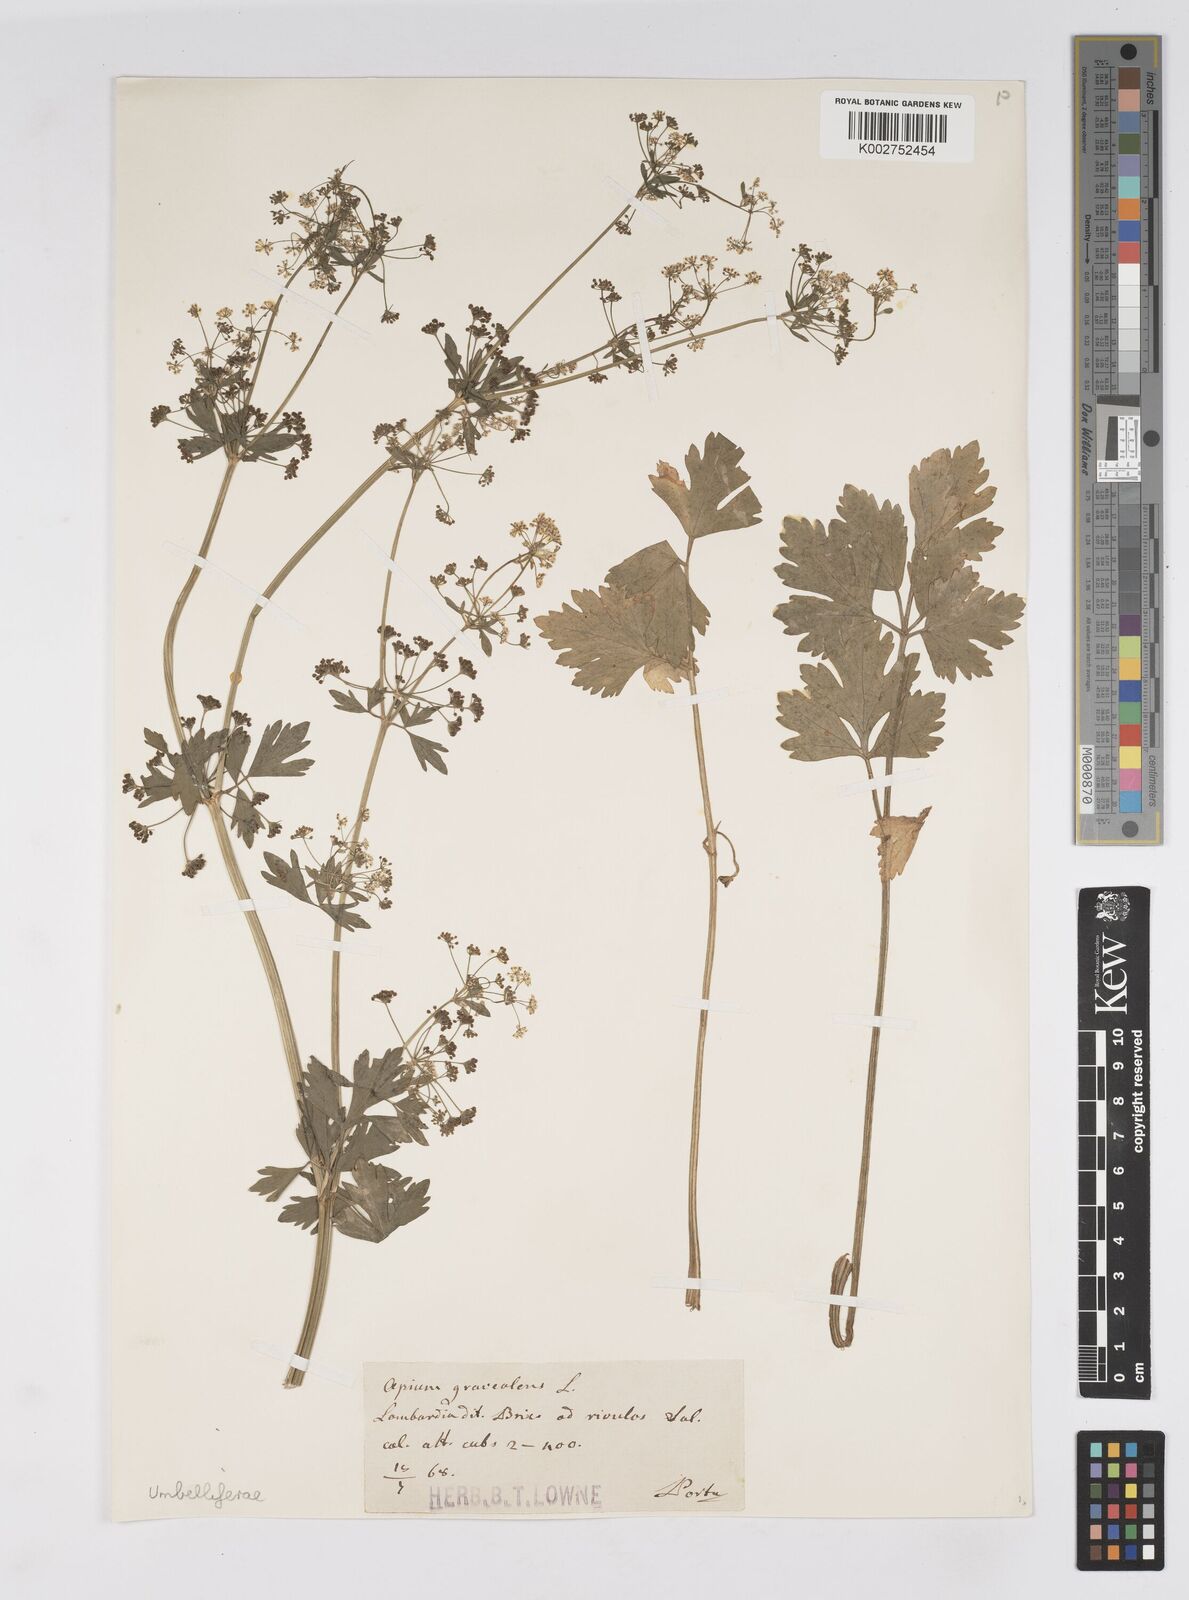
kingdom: Plantae
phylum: Tracheophyta
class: Magnoliopsida
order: Apiales
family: Apiaceae
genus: Apium
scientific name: Apium graveolens
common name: Wild celery
